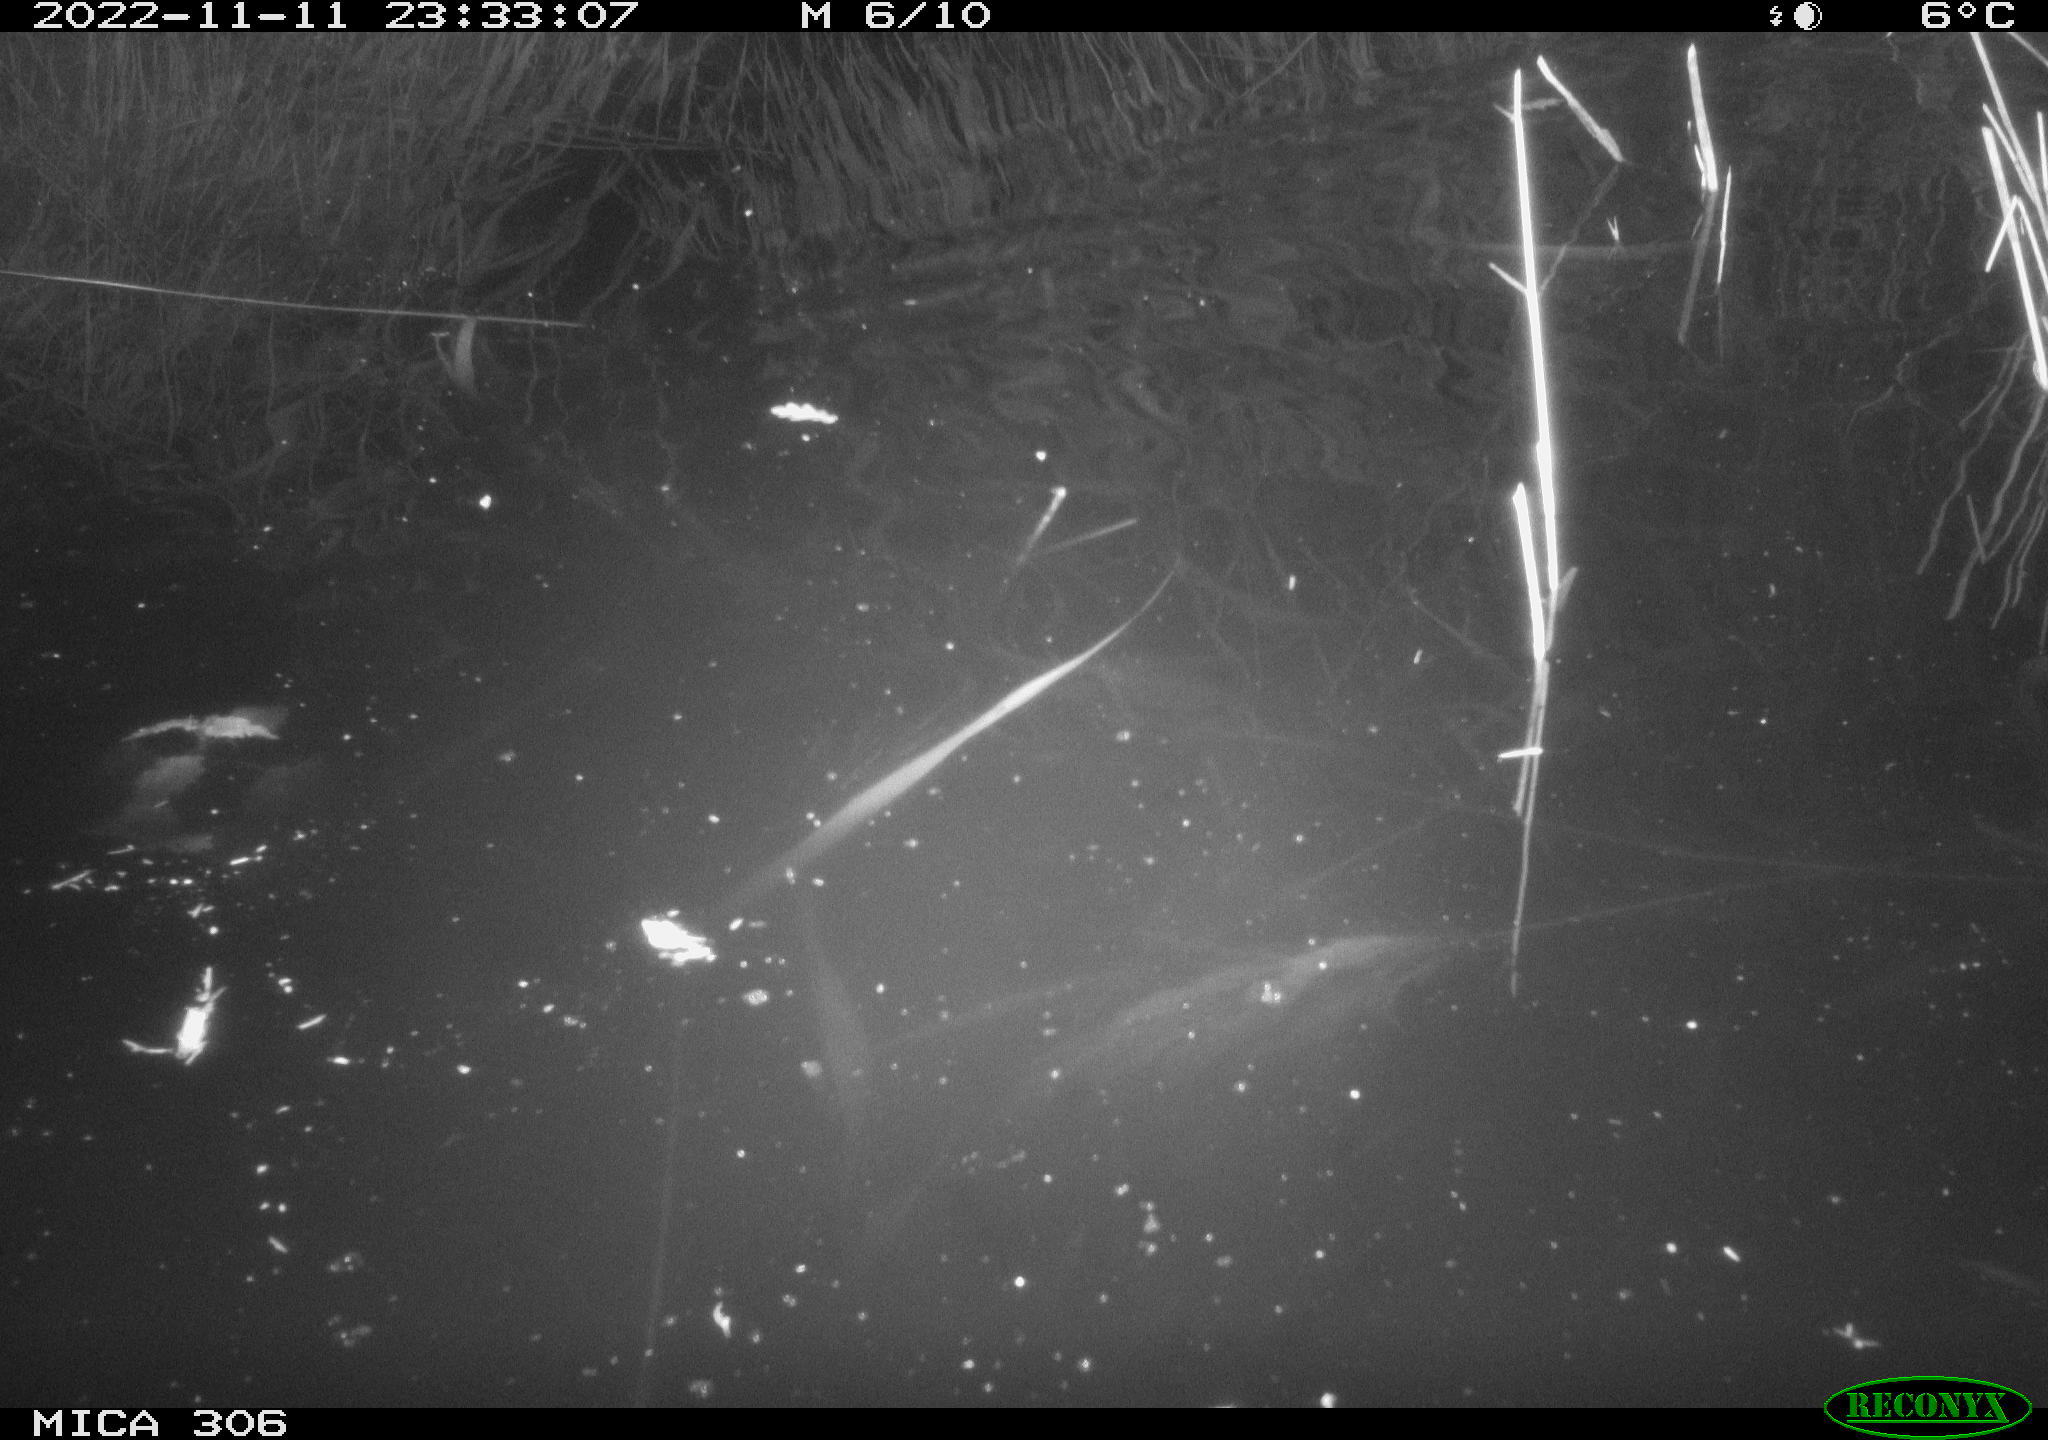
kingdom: Animalia
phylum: Chordata
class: Mammalia
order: Rodentia
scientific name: Rodentia
